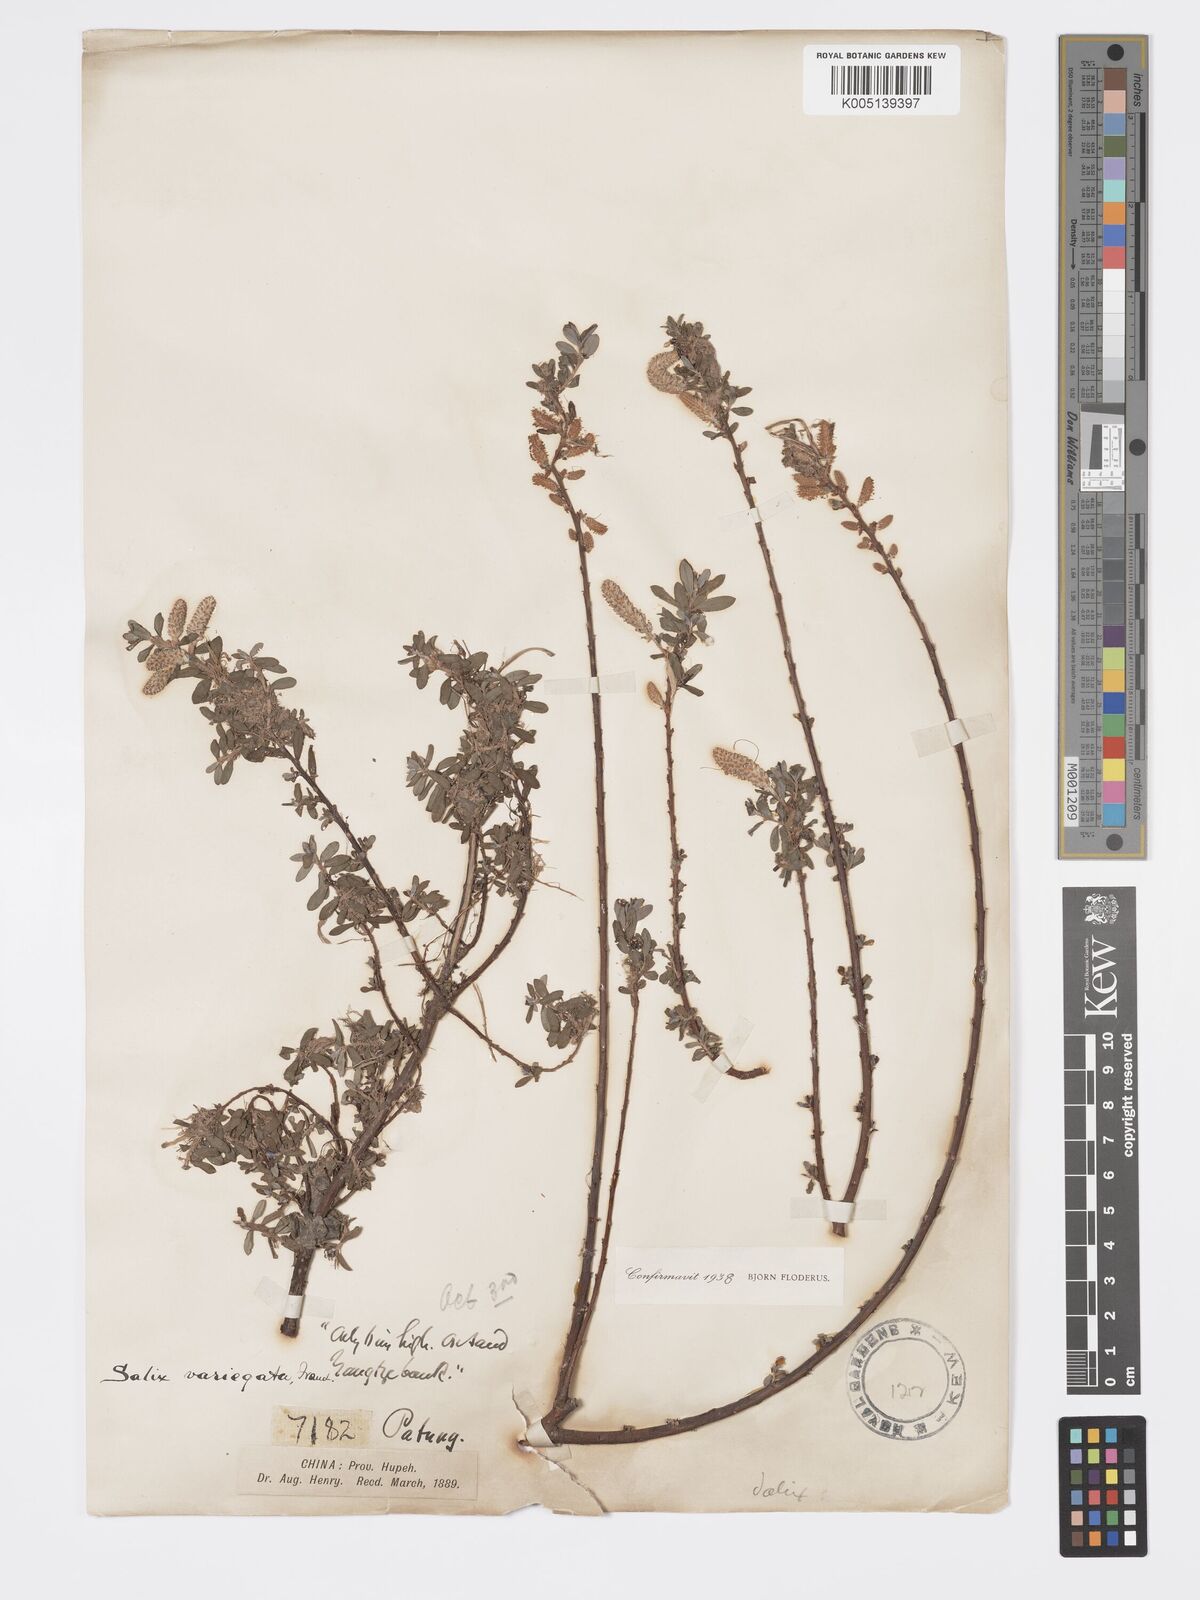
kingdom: Plantae
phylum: Tracheophyta
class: Magnoliopsida
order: Malpighiales
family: Salicaceae
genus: Salix
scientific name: Salix variegata
